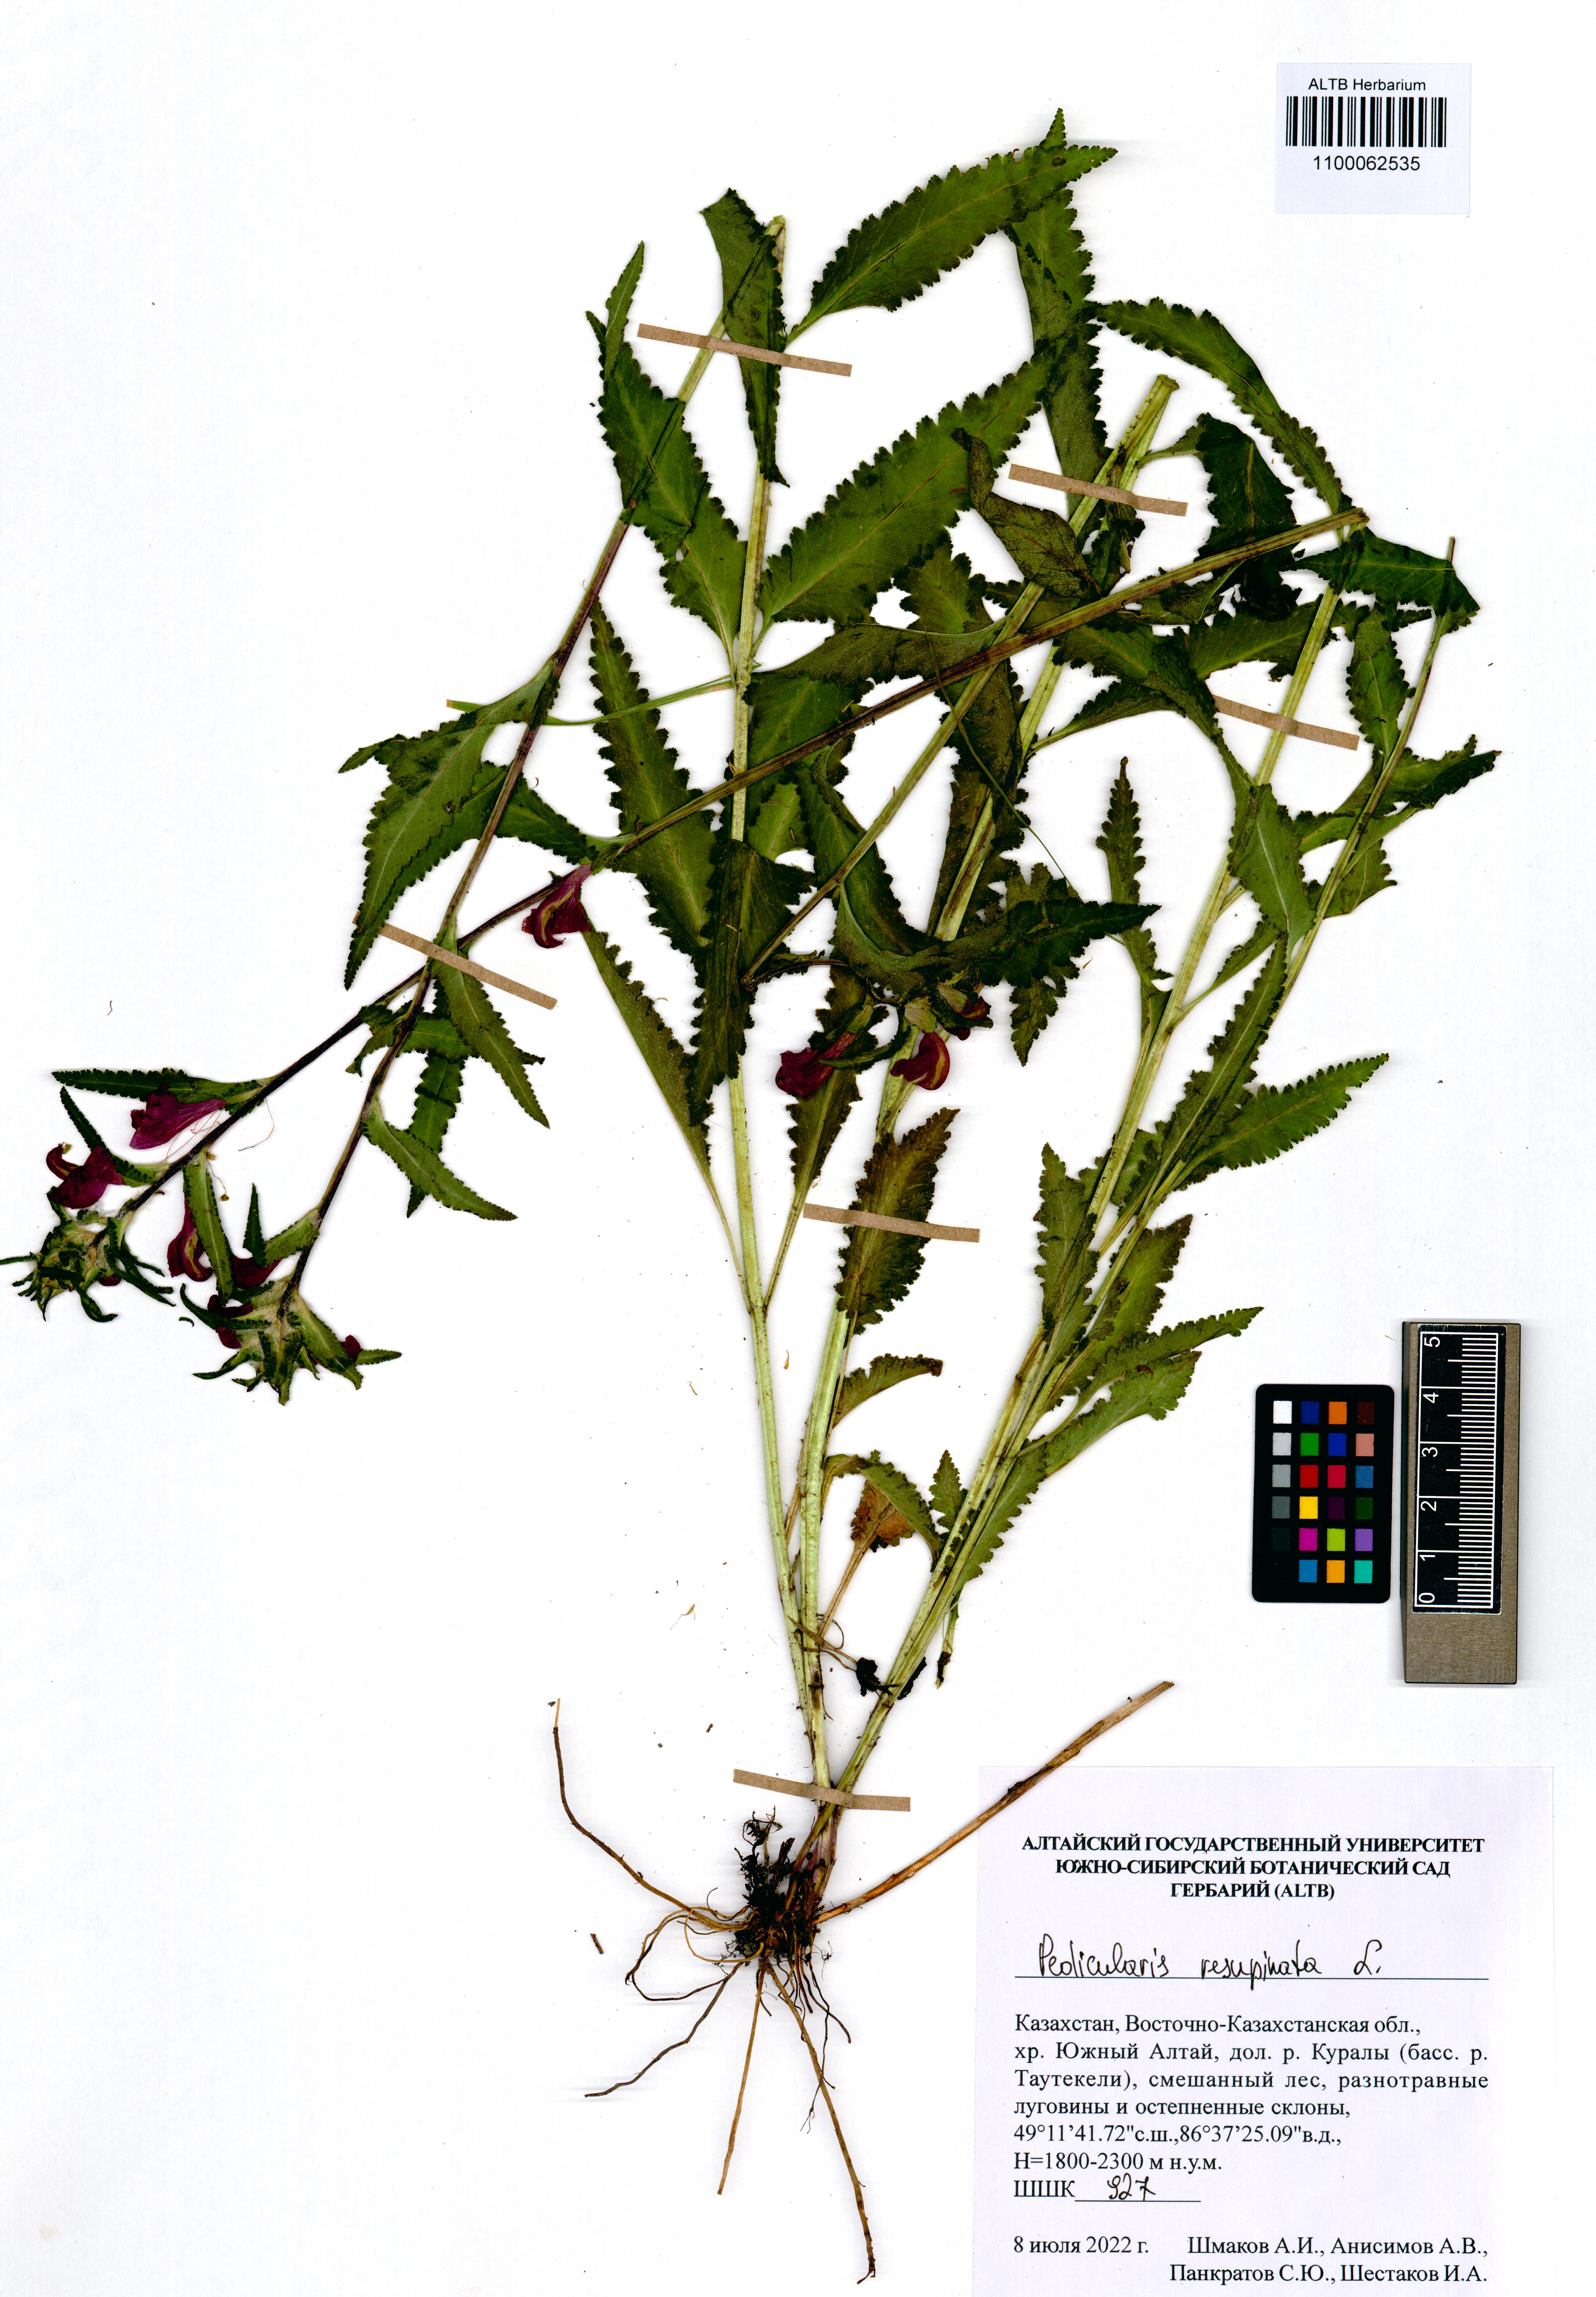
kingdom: Plantae
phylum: Tracheophyta
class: Magnoliopsida
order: Lamiales
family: Orobanchaceae
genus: Pedicularis
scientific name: Pedicularis resupinata
